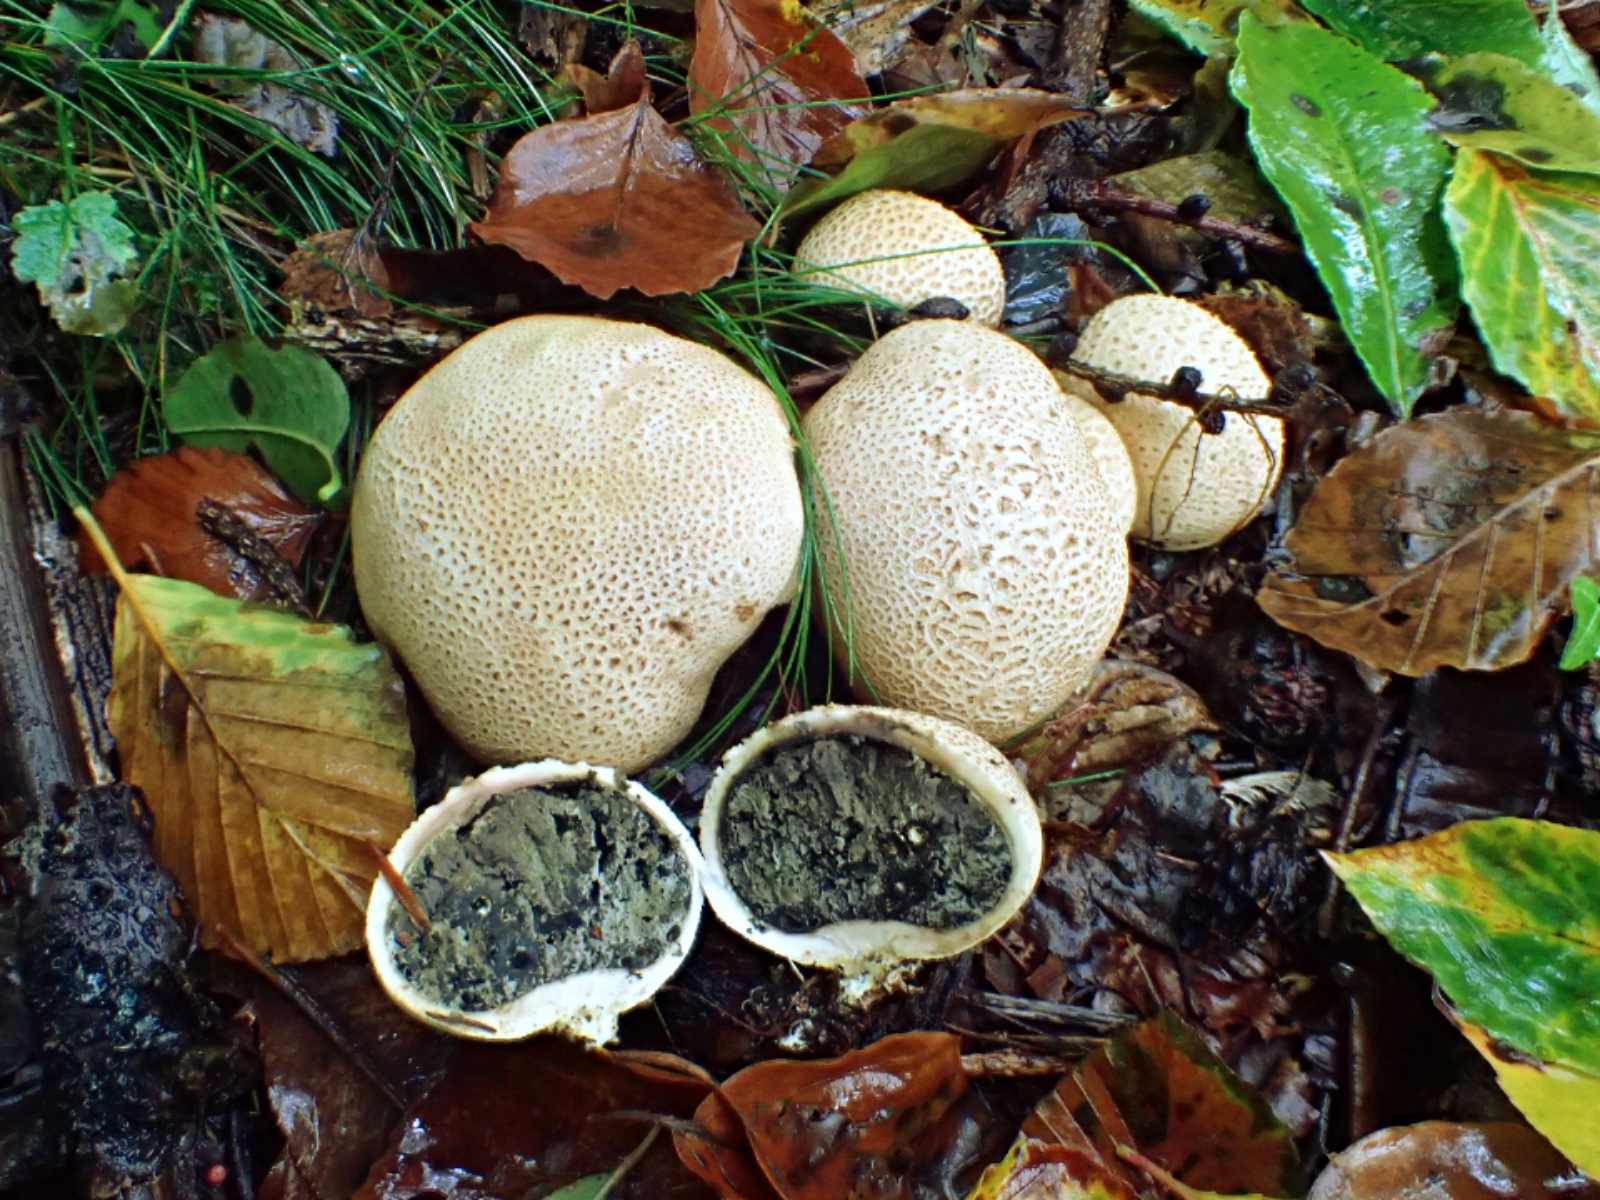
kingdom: Fungi
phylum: Basidiomycota
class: Agaricomycetes
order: Boletales
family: Sclerodermataceae
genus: Scleroderma
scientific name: Scleroderma citrinum
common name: almindelig bruskbold
